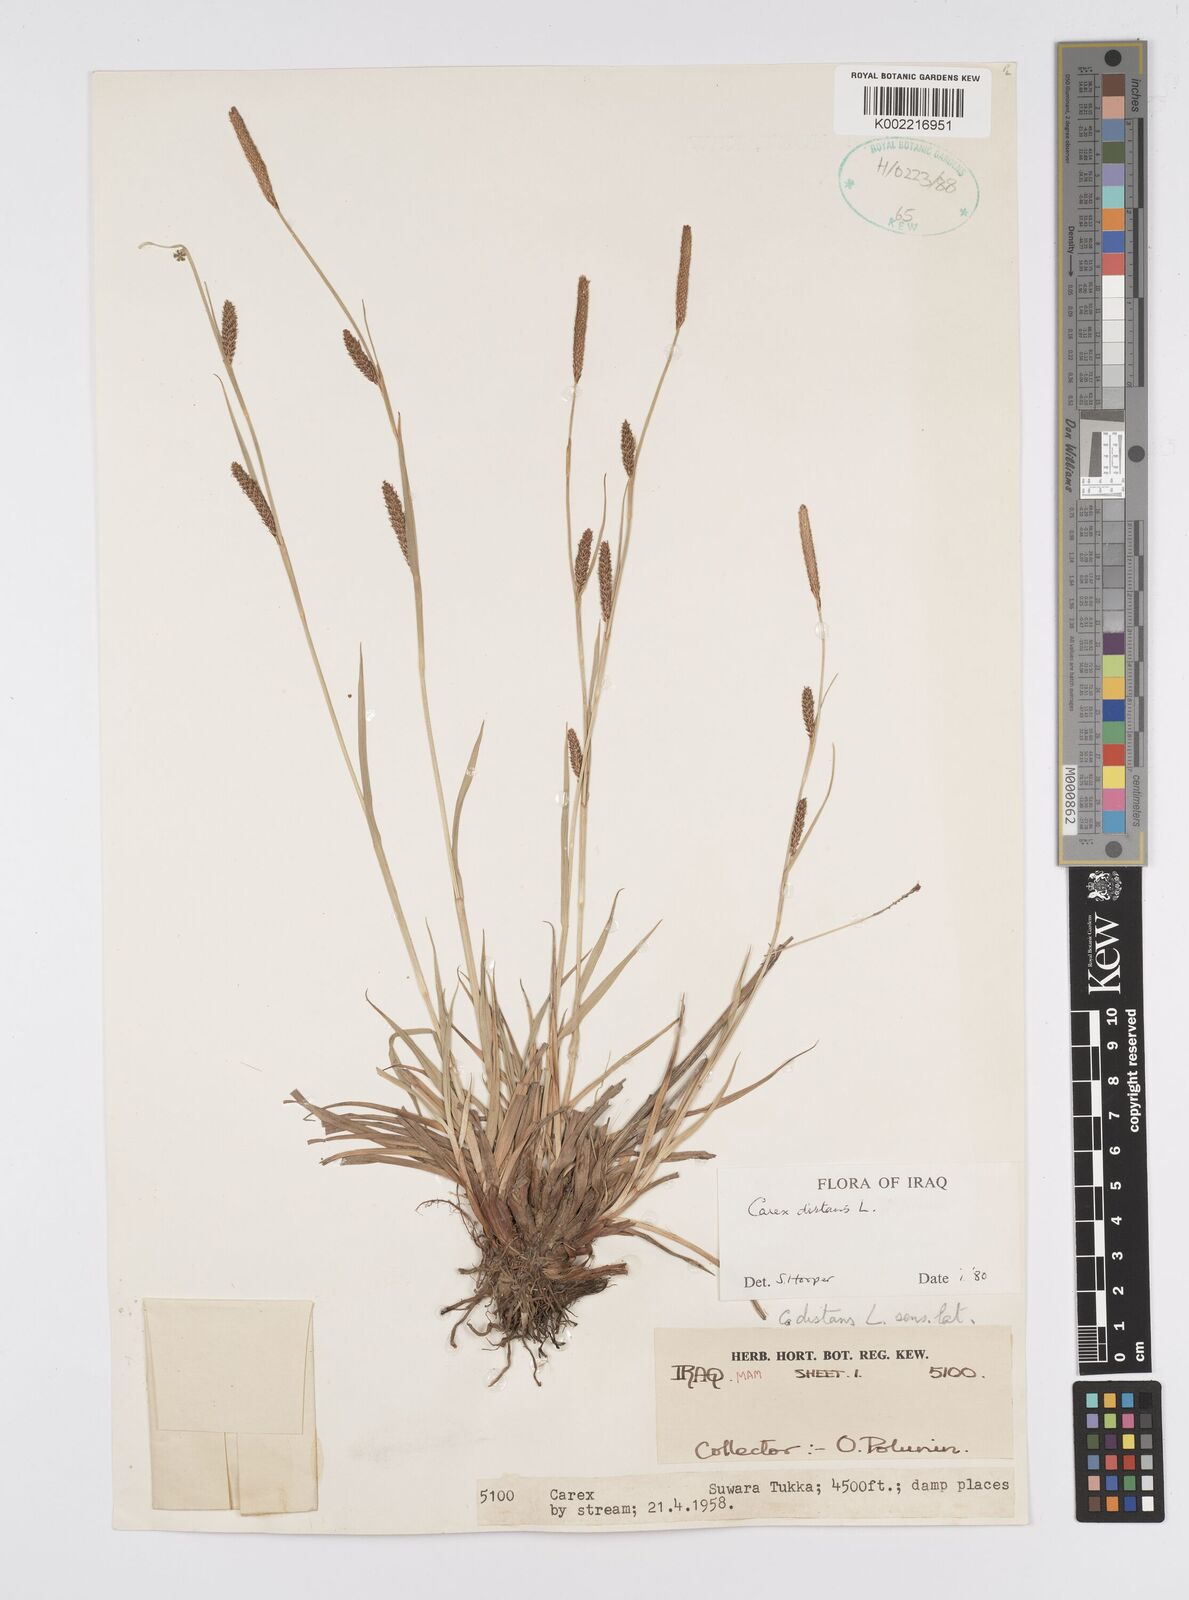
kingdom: Plantae
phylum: Tracheophyta
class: Liliopsida
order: Poales
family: Cyperaceae
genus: Carex
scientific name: Carex distans
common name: Distant sedge
